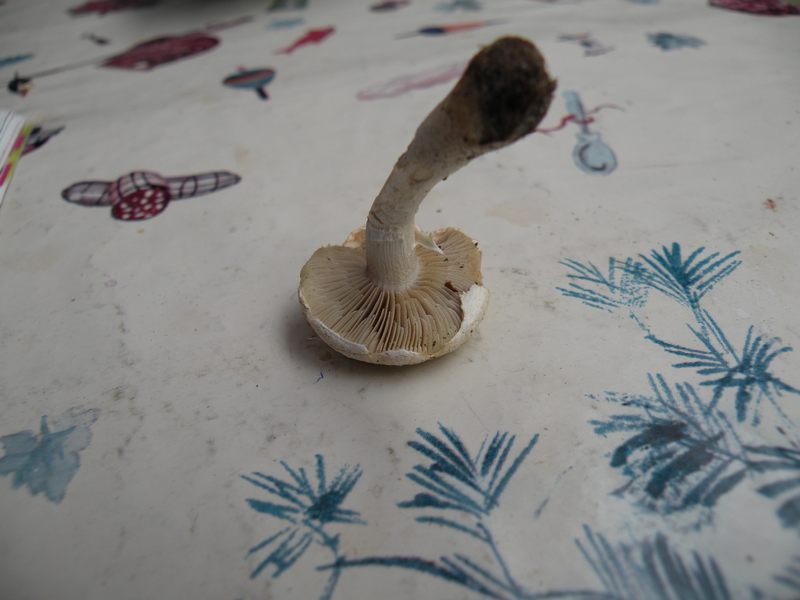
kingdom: Fungi
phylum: Basidiomycota
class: Agaricomycetes
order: Agaricales
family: Strophariaceae
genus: Agrocybe
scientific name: Agrocybe dura
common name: fastkødet agerhat
